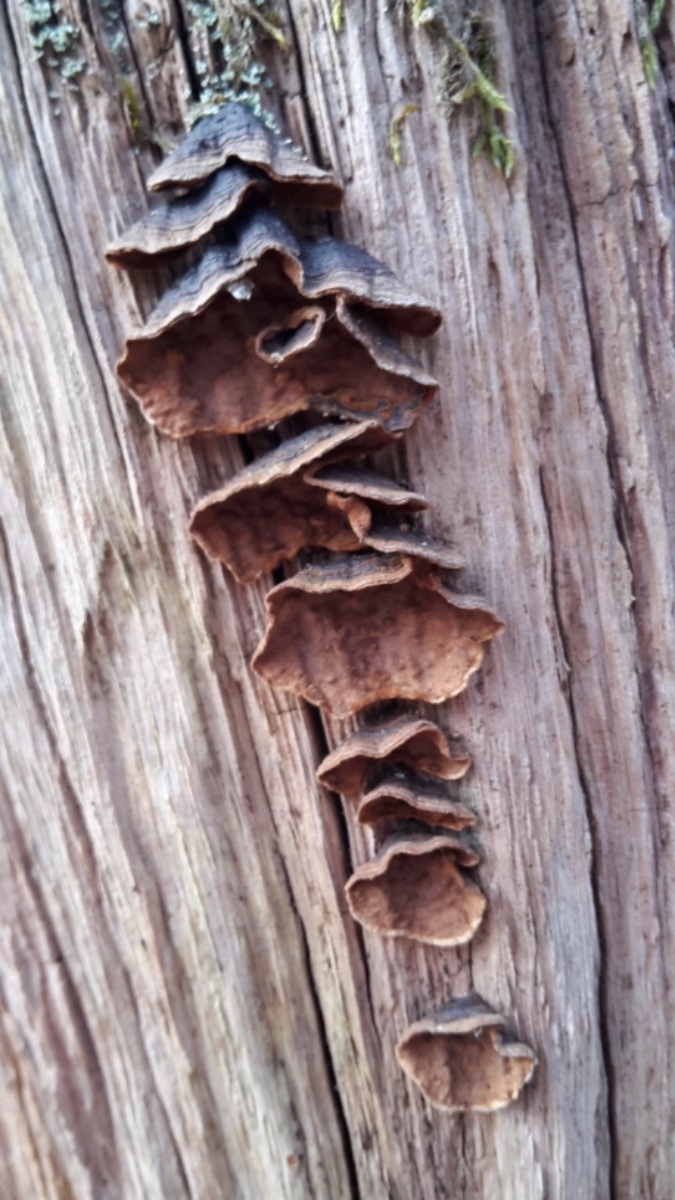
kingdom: Fungi
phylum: Basidiomycota
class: Agaricomycetes
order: Hymenochaetales
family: Hymenochaetaceae
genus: Hymenochaete
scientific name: Hymenochaete rubiginosa
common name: stiv ruslædersvamp
